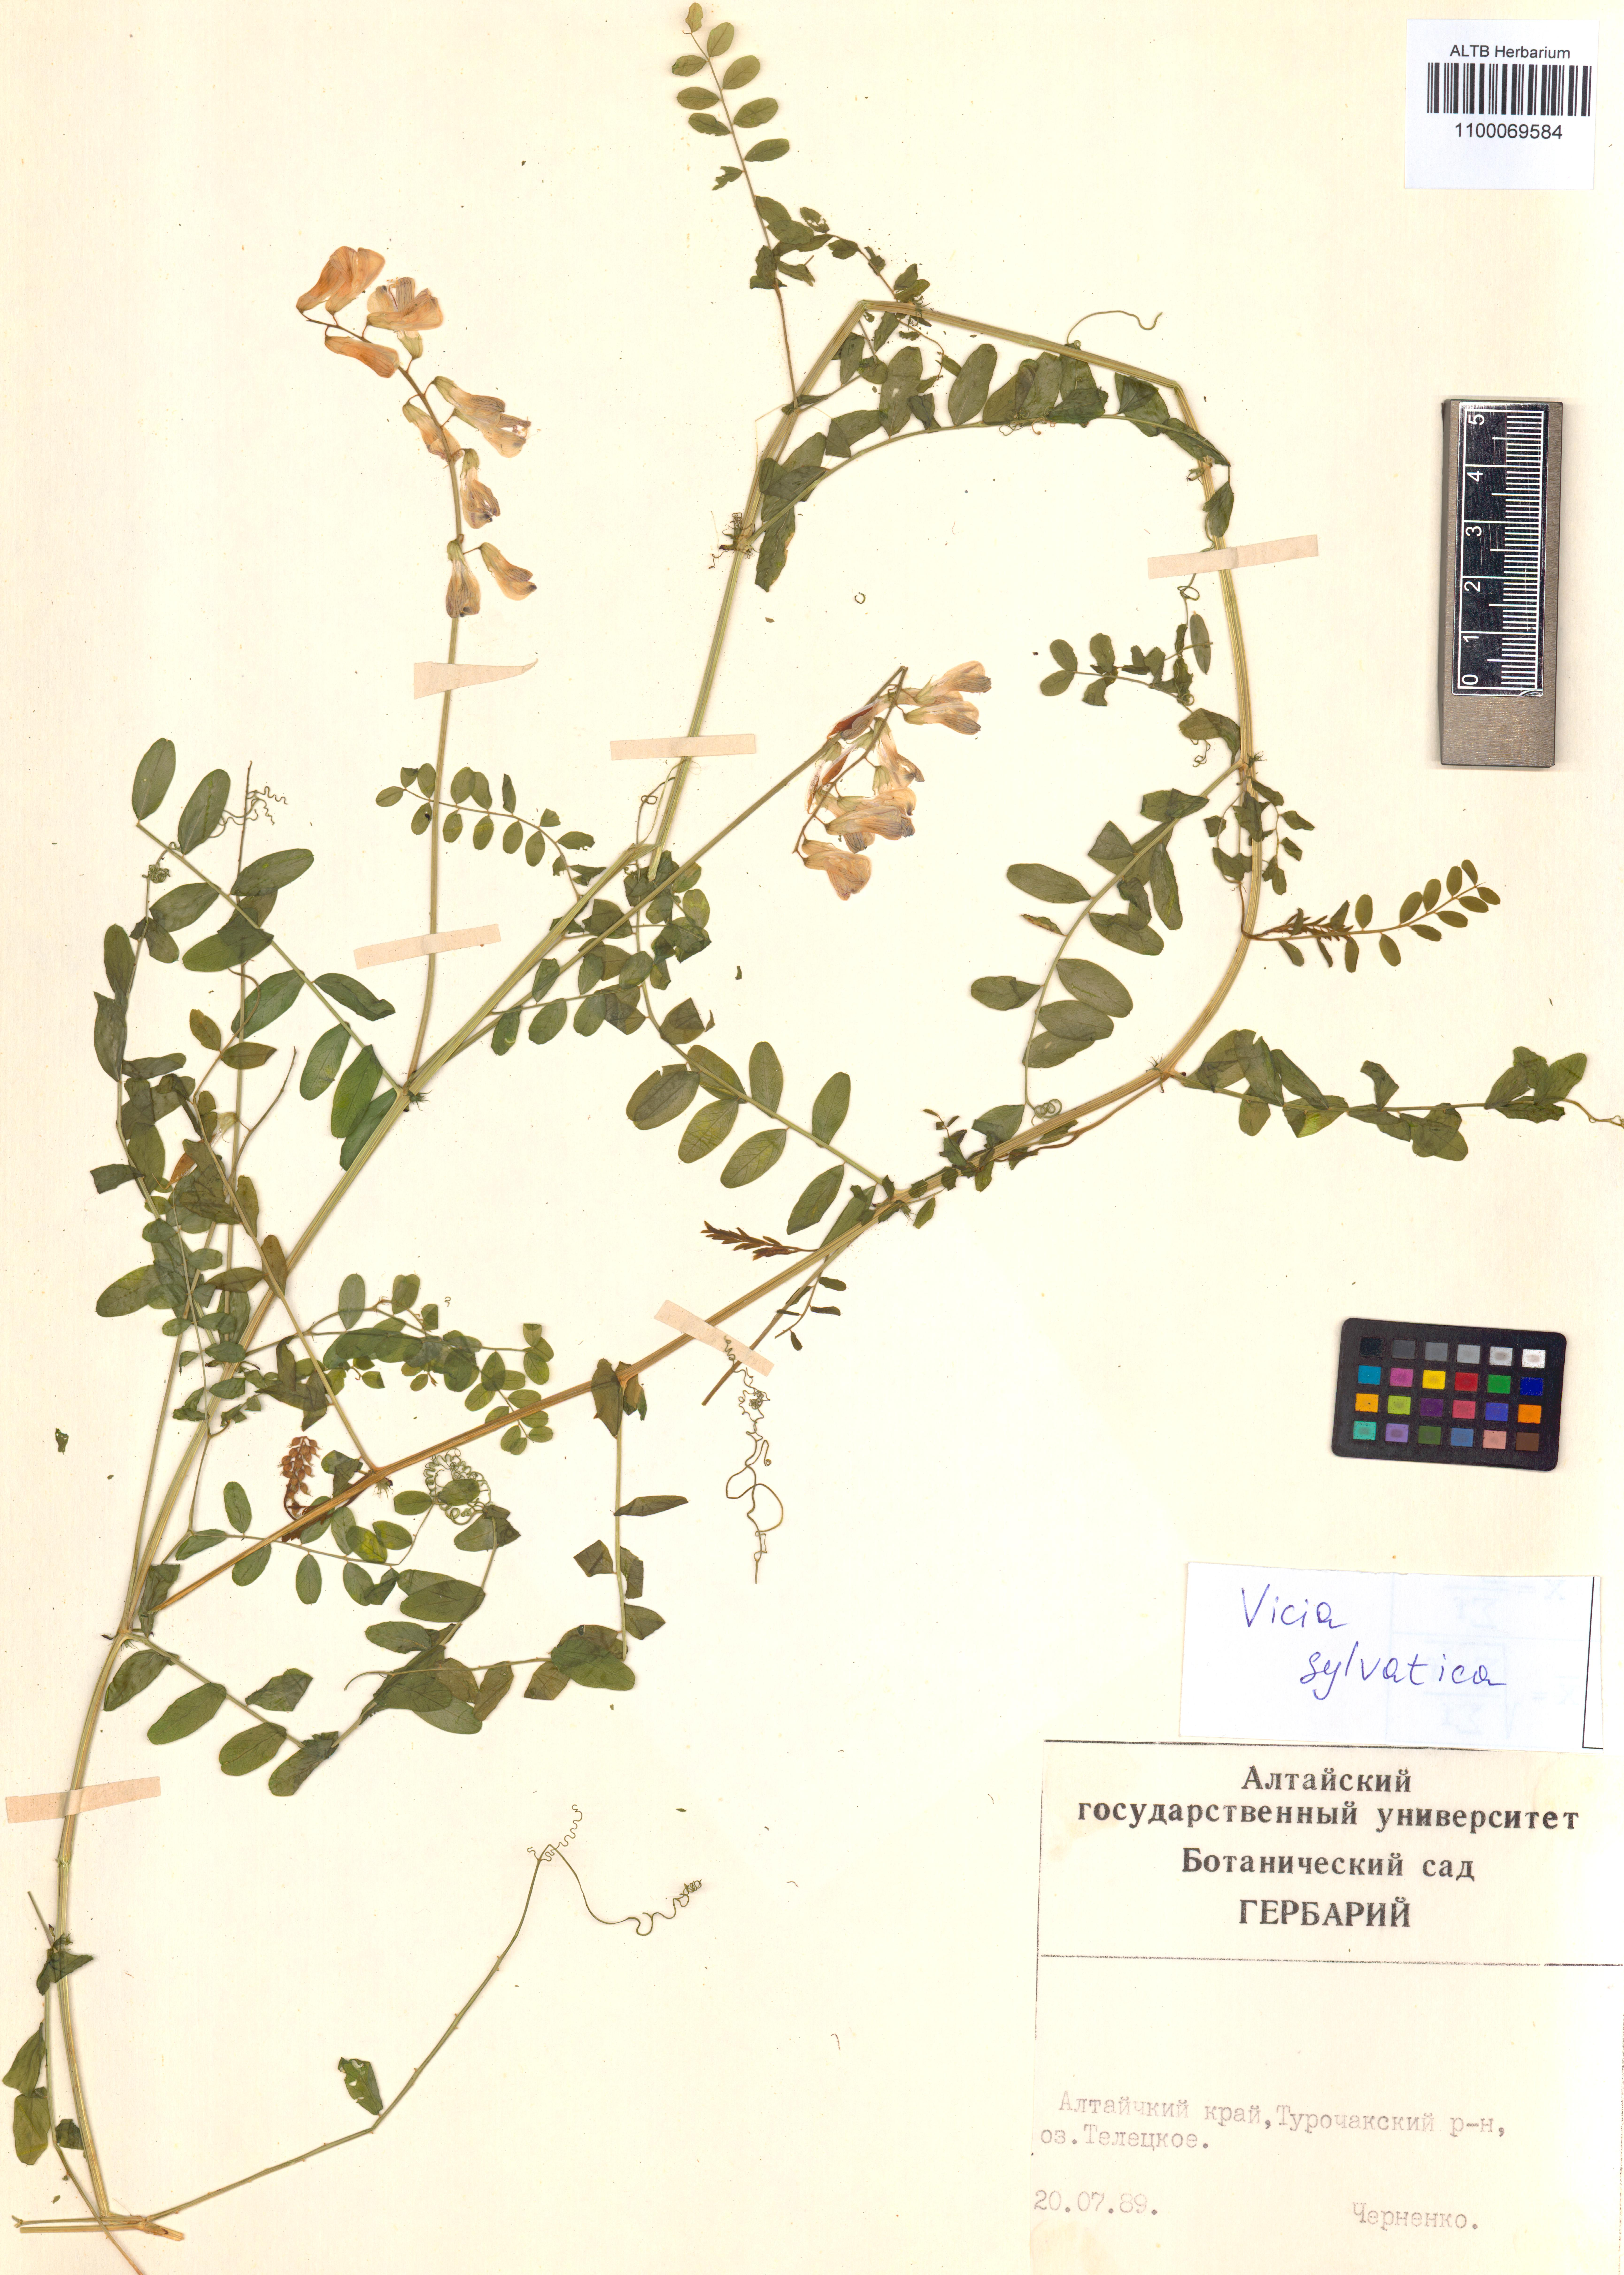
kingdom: Plantae
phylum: Tracheophyta
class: Magnoliopsida
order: Fabales
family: Fabaceae
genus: Vicia
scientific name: Vicia bakeri
